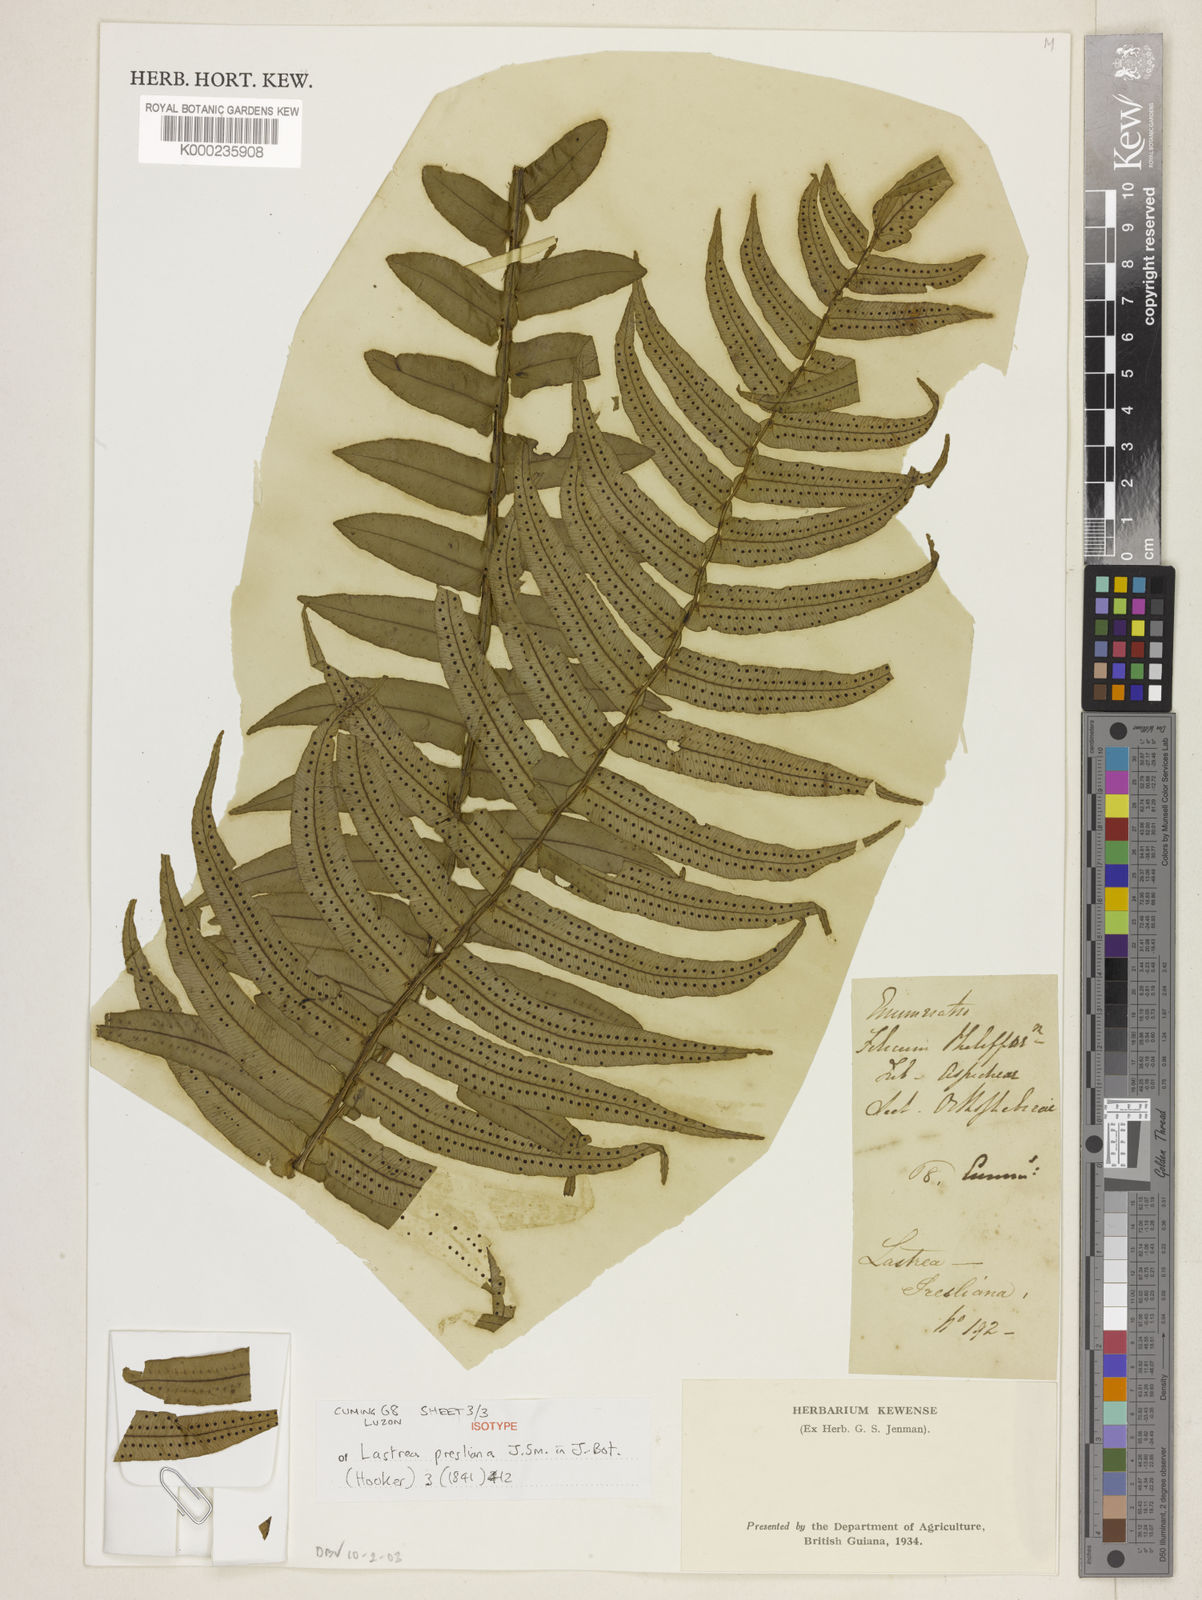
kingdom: Plantae
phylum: Tracheophyta
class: Polypodiopsida
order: Polypodiales
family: Lomariopsidaceae
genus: Cyclopeltis
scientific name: Cyclopeltis presliana
